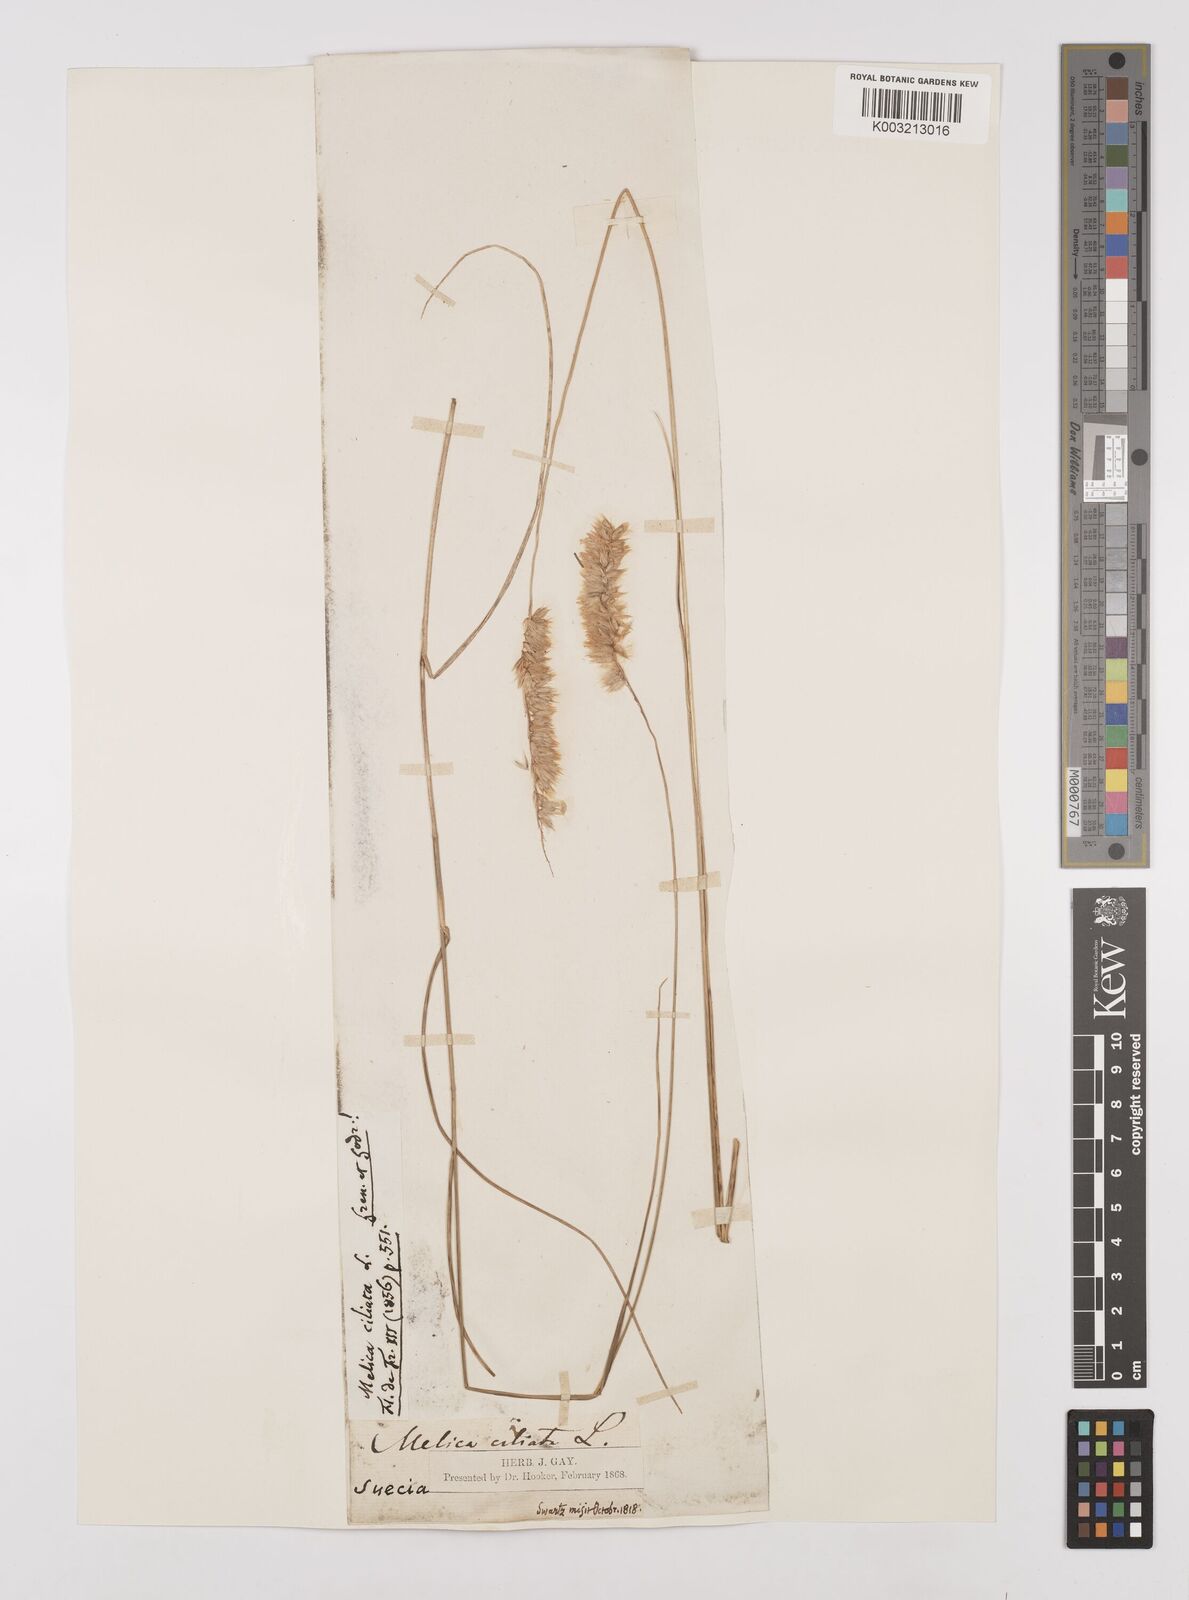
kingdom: Plantae
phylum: Tracheophyta
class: Liliopsida
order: Poales
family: Poaceae
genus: Melica
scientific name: Melica ciliata
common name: Hairy melicgrass
